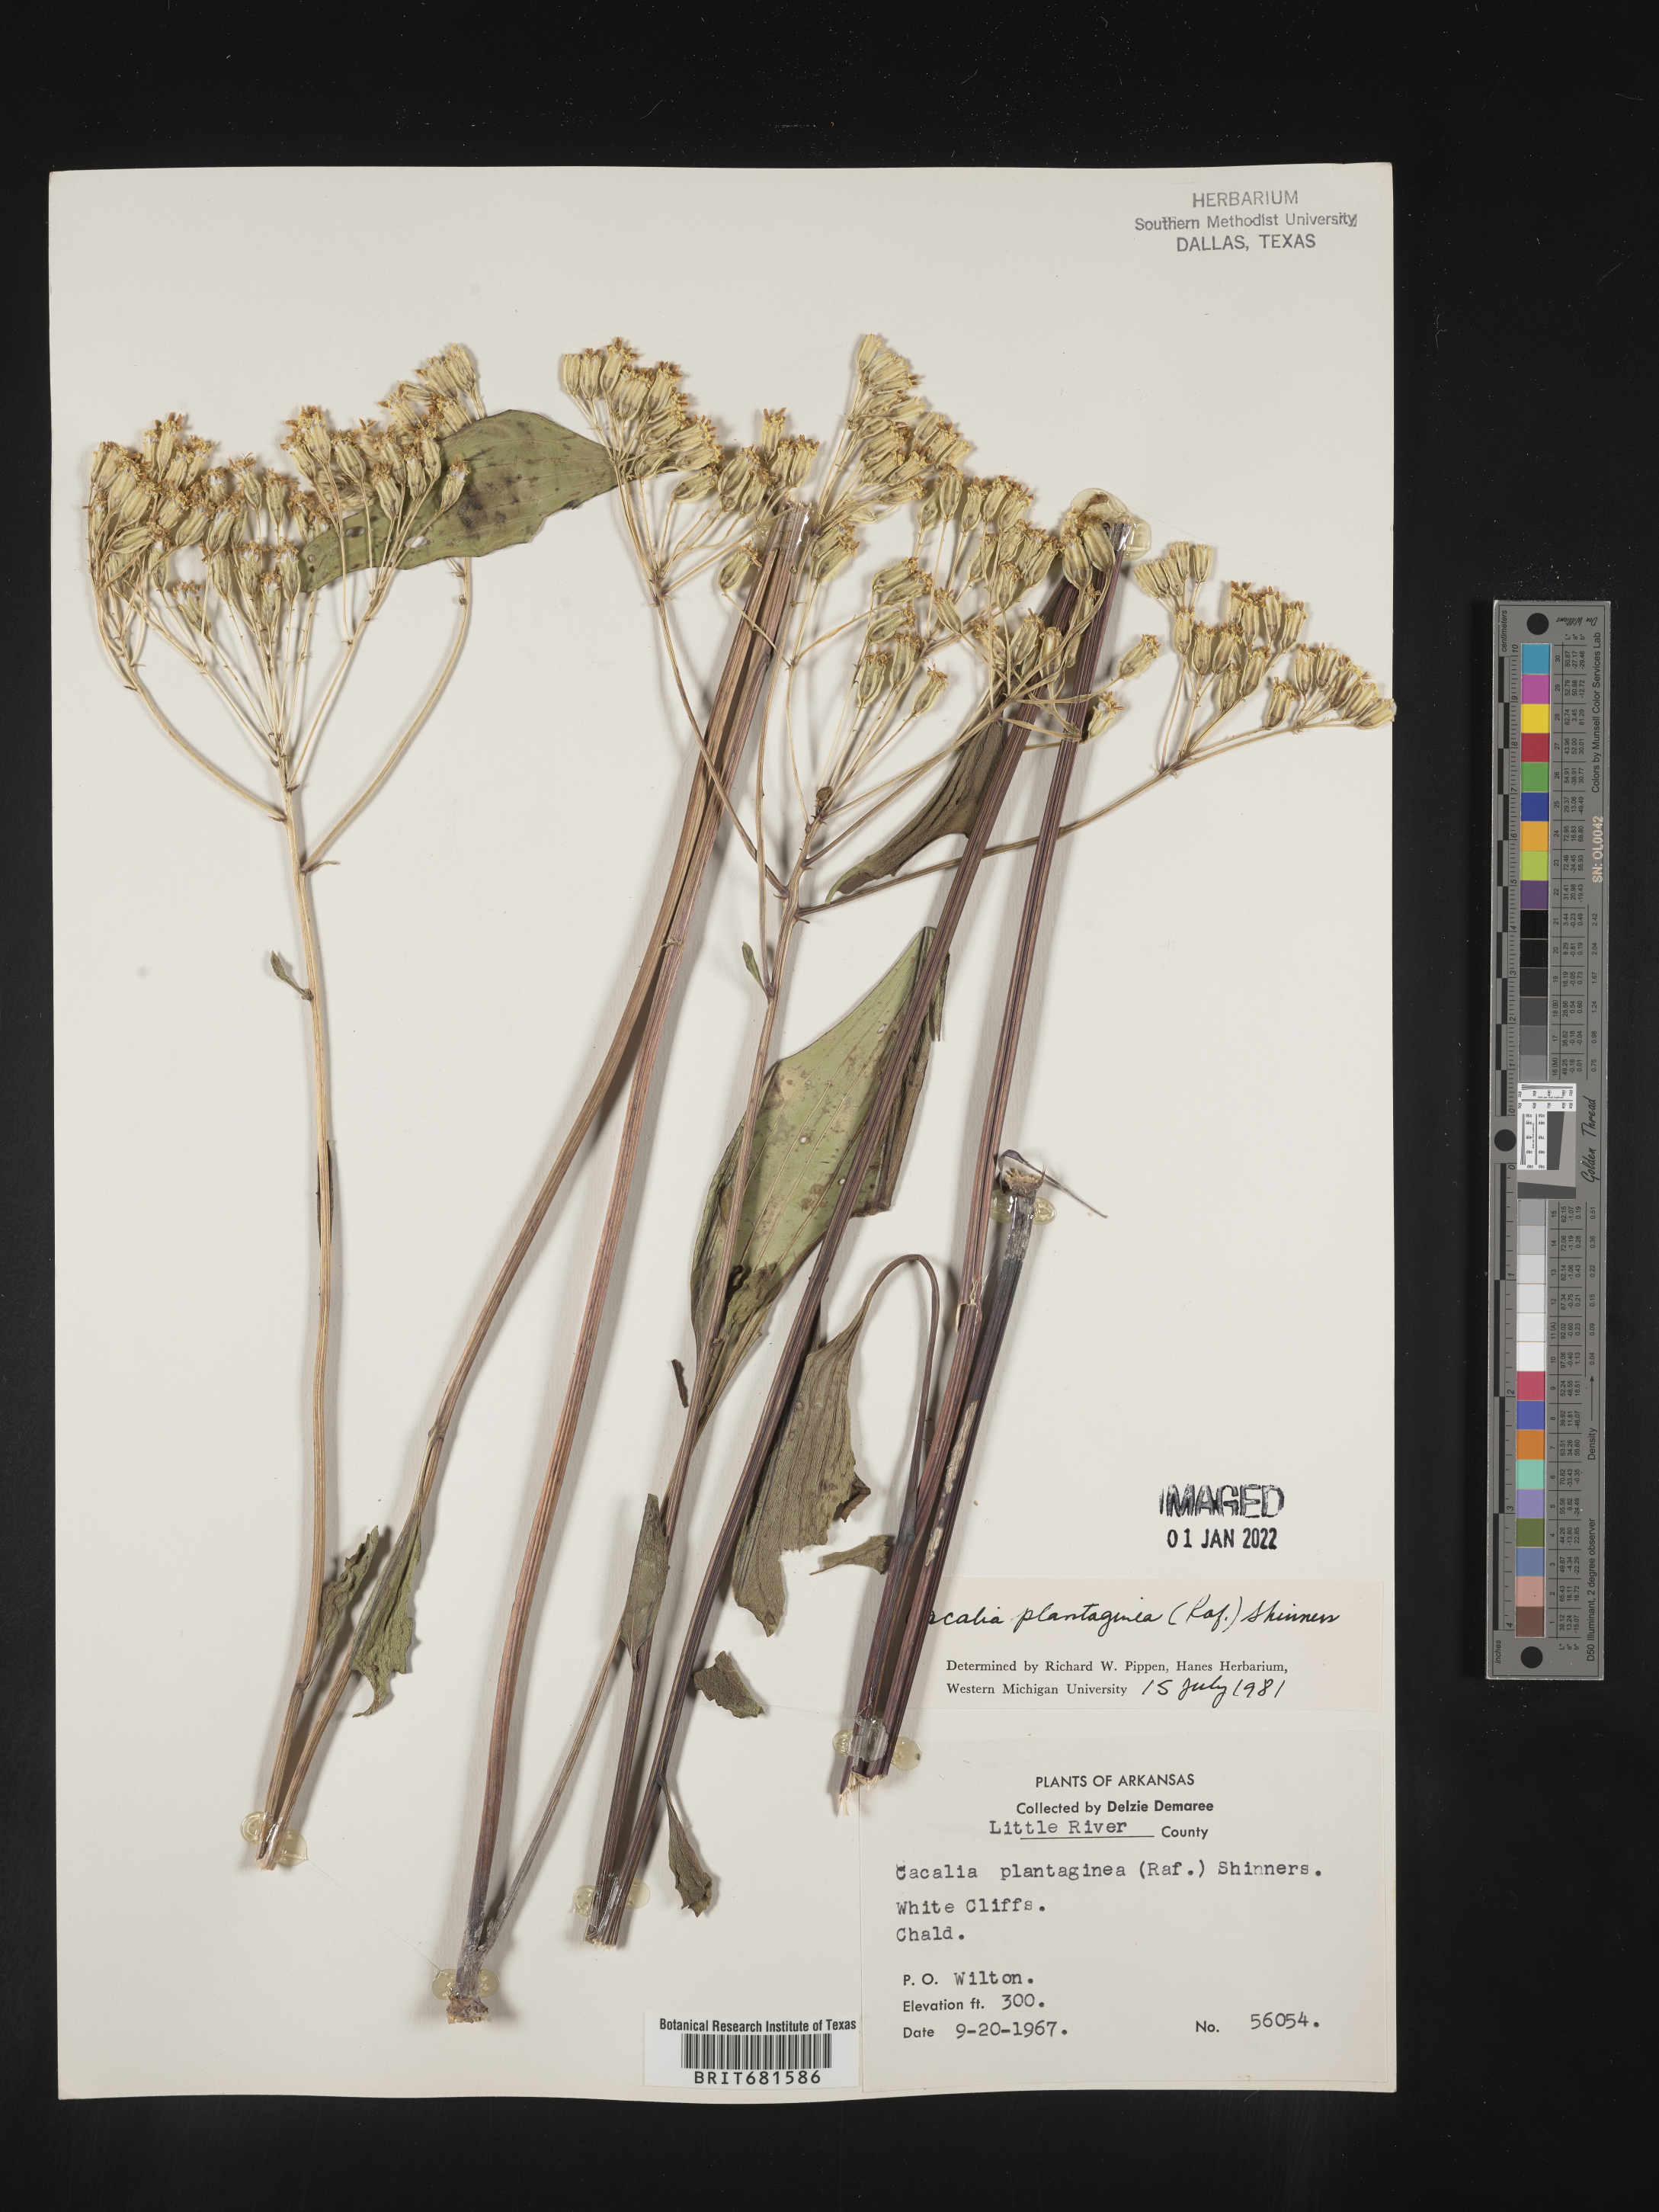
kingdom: Plantae
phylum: Tracheophyta
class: Magnoliopsida
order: Asterales
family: Asteraceae
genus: Arnoglossum
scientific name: Arnoglossum plantagineum
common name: Groove-stemmed indian-plantain
